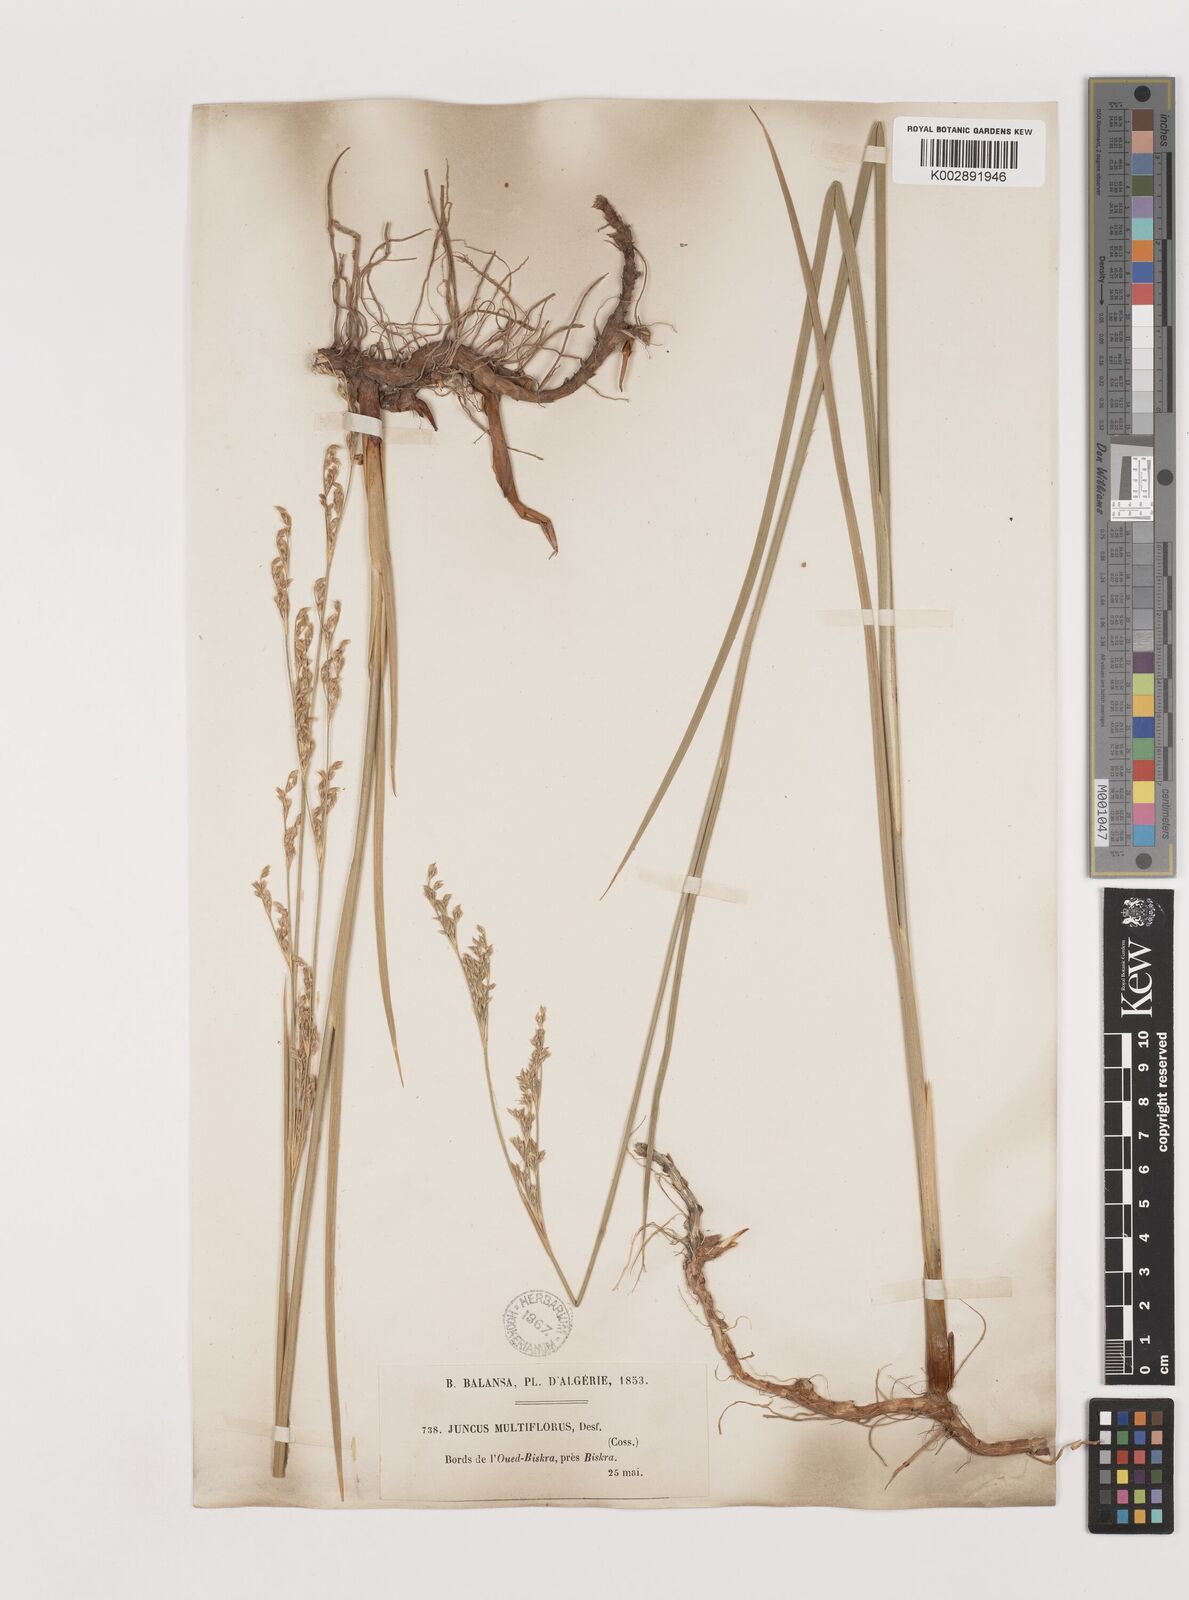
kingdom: Plantae
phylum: Tracheophyta
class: Liliopsida
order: Poales
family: Juncaceae
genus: Juncus
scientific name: Juncus subulatus
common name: Somerset rush
